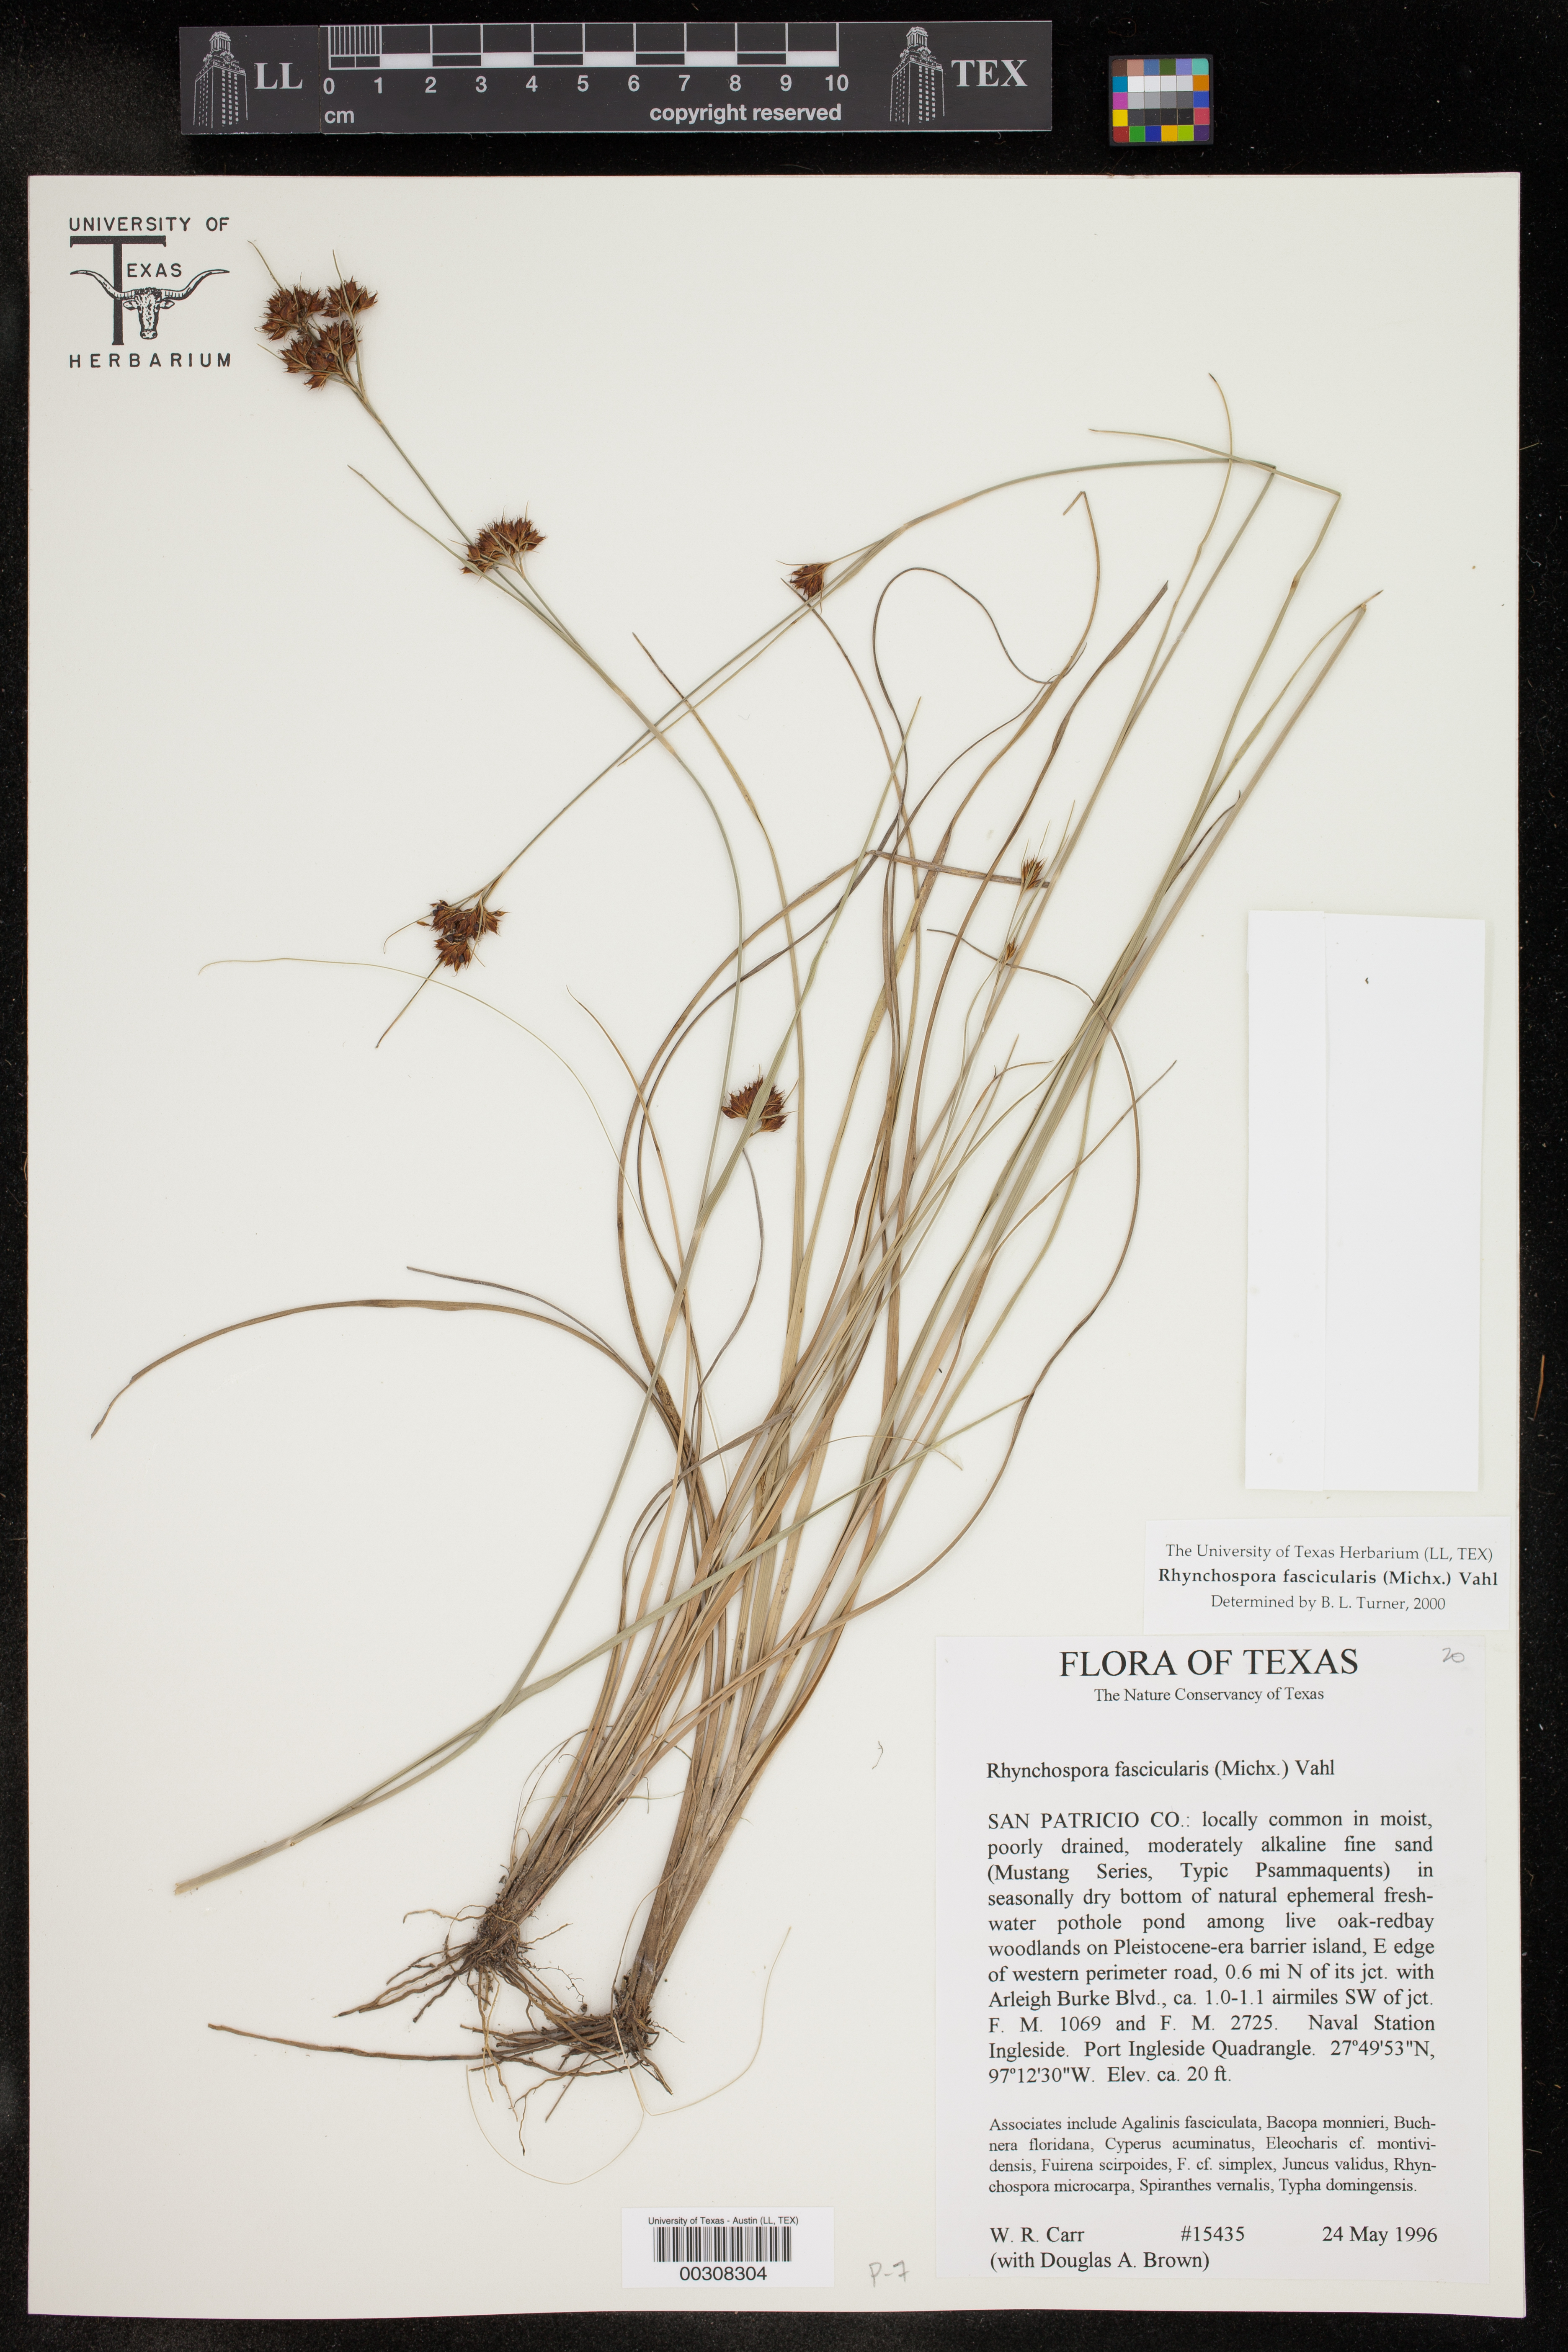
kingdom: Plantae
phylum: Tracheophyta
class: Liliopsida
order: Poales
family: Cyperaceae
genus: Rhynchospora
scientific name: Rhynchospora fascicularis
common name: Fascicled beak sedge
